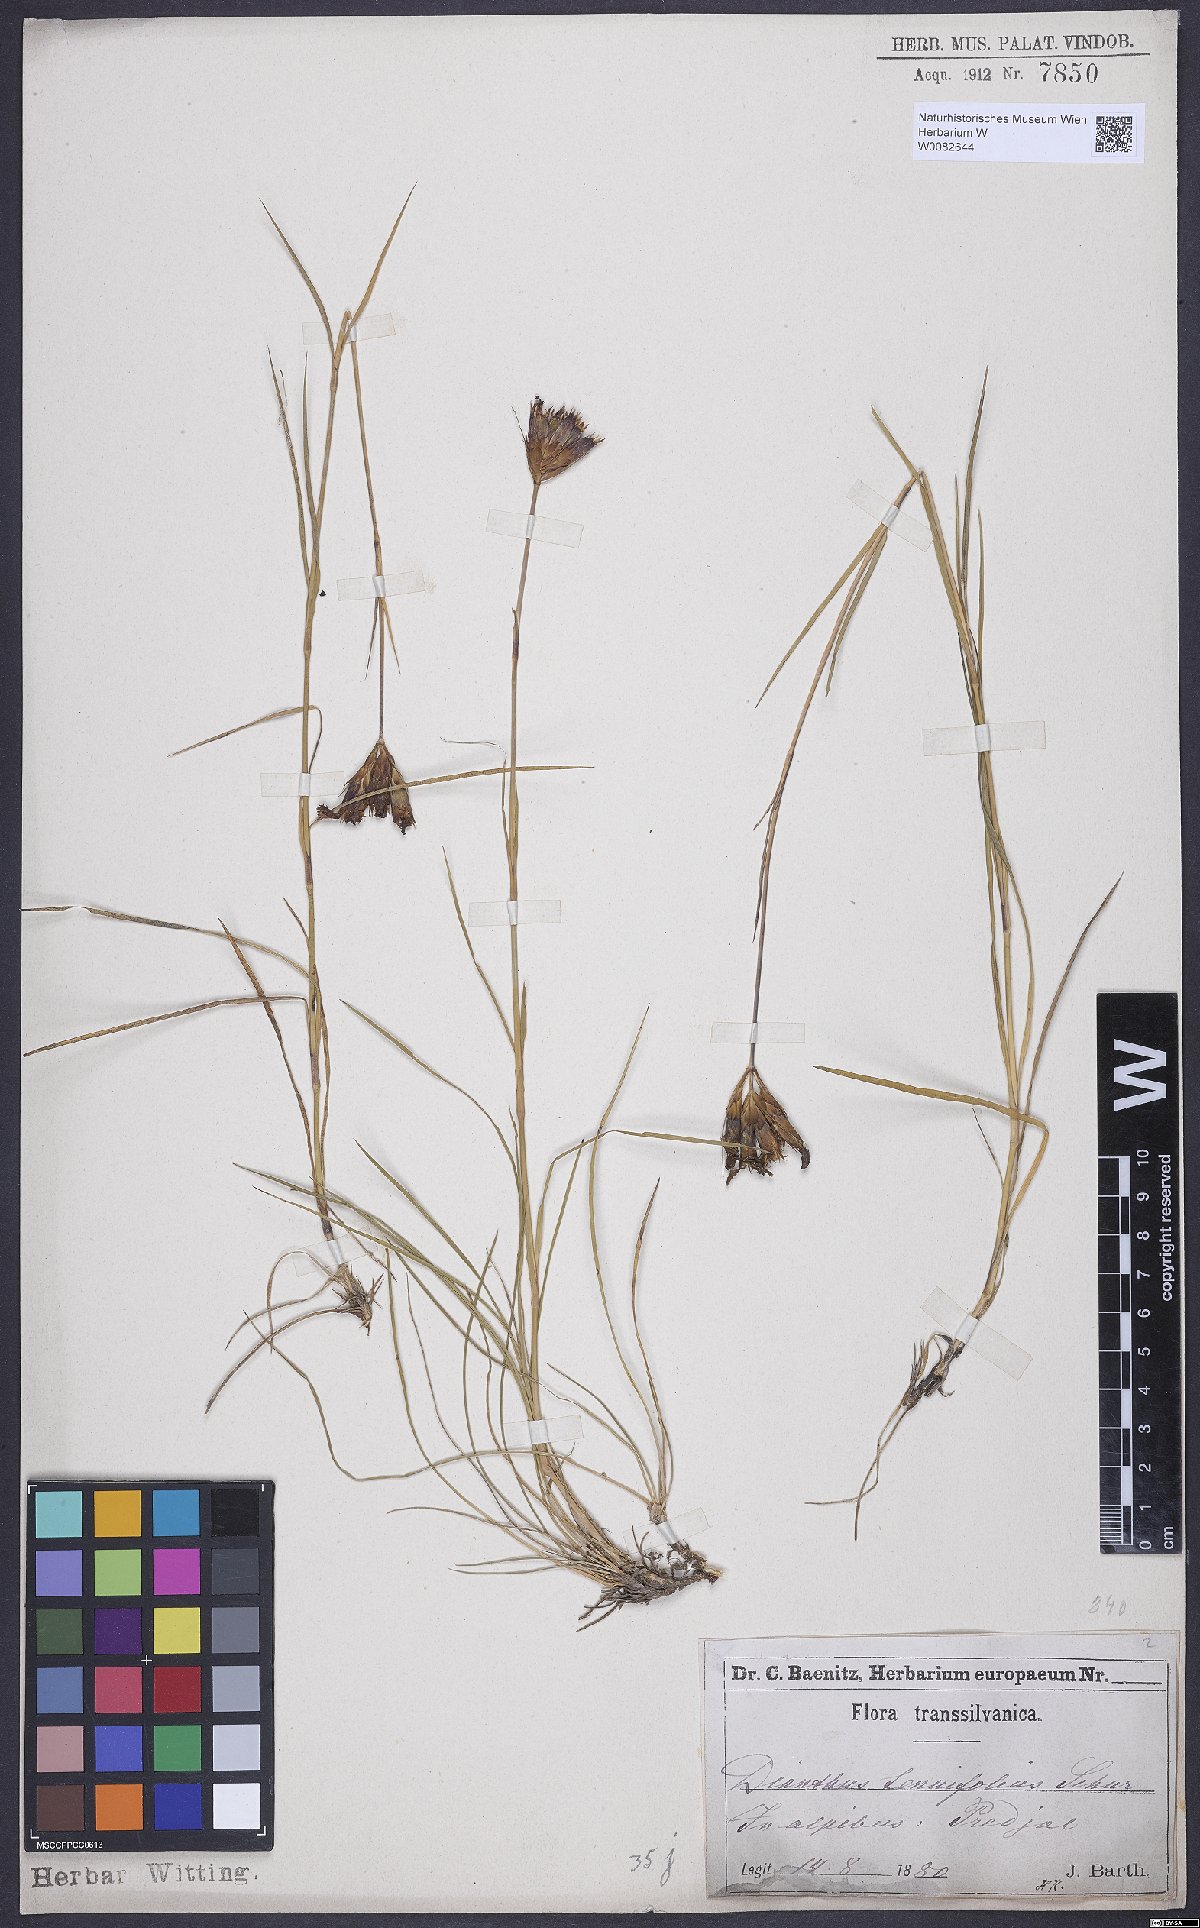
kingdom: Plantae
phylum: Tracheophyta
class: Magnoliopsida
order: Caryophyllales
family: Caryophyllaceae
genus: Dianthus
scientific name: Dianthus carthusianorum
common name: Carthusian pink
